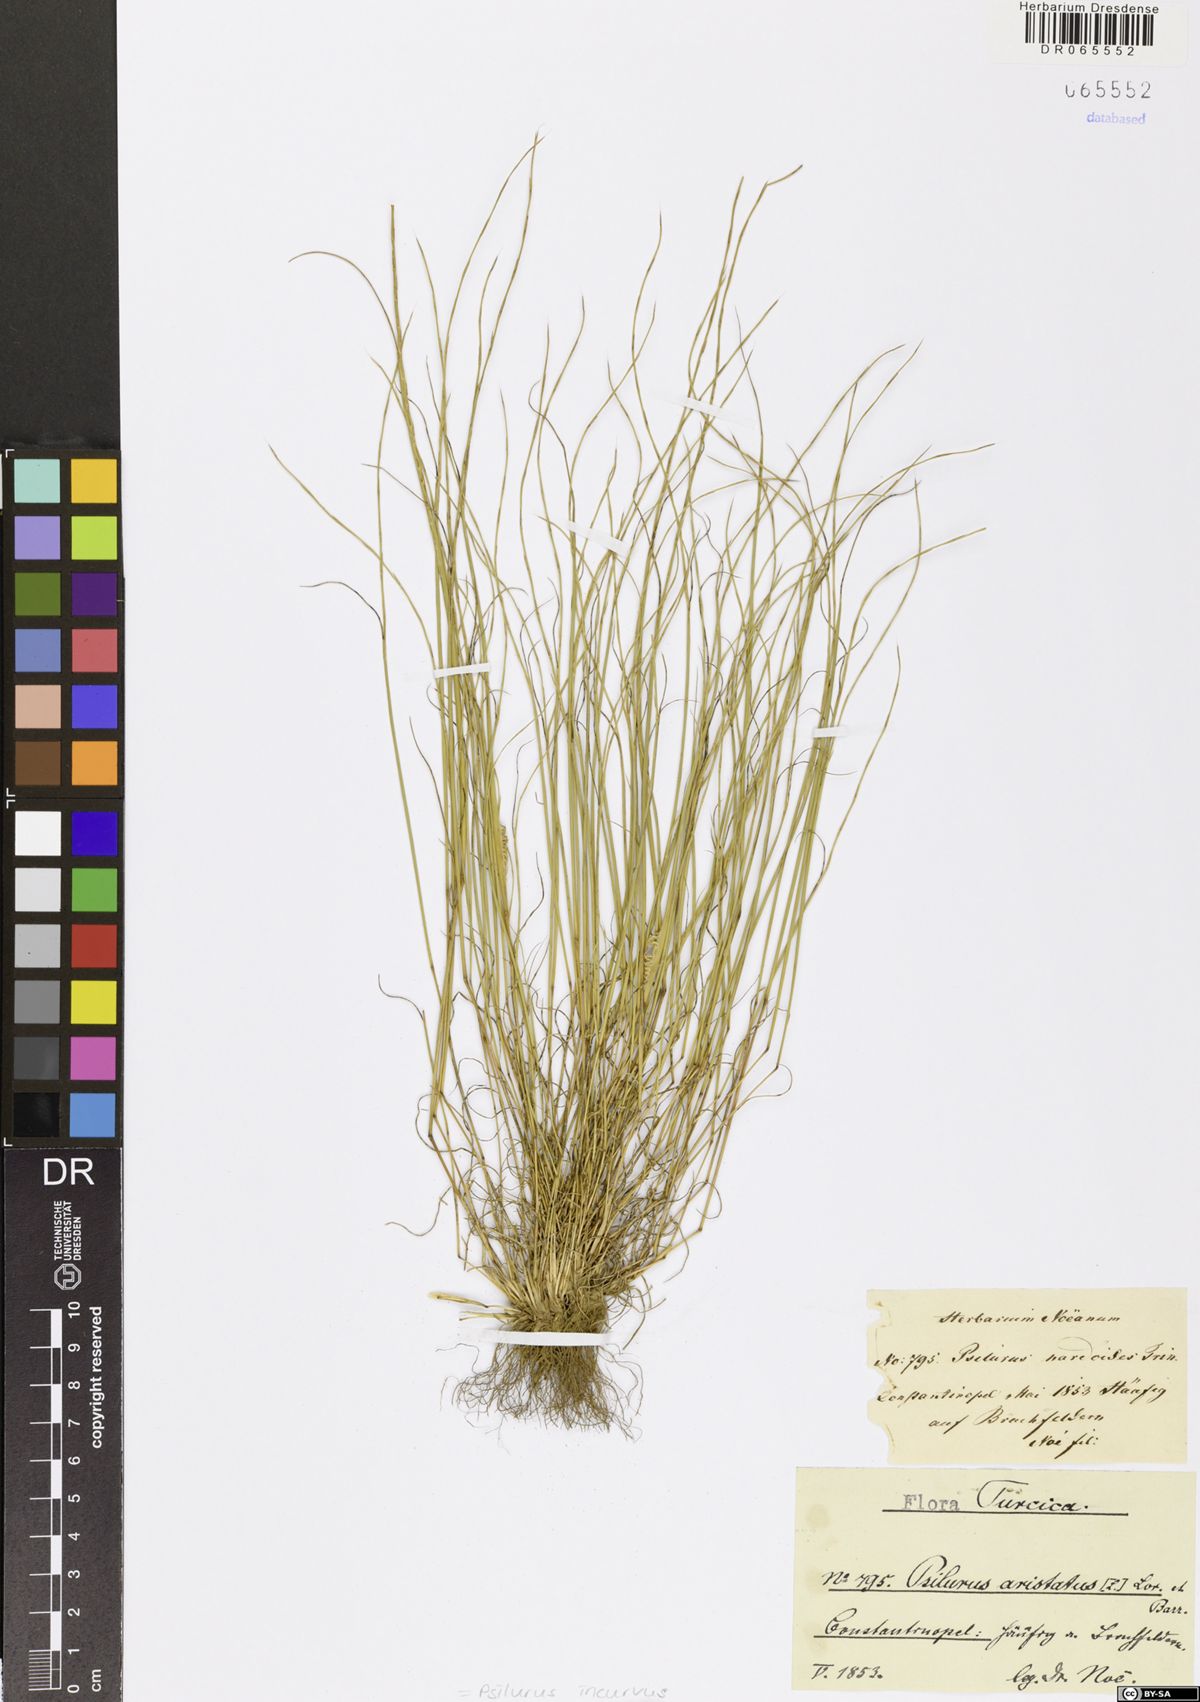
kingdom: Plantae
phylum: Tracheophyta
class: Liliopsida
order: Poales
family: Poaceae
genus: Festuca
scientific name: Festuca incurva
